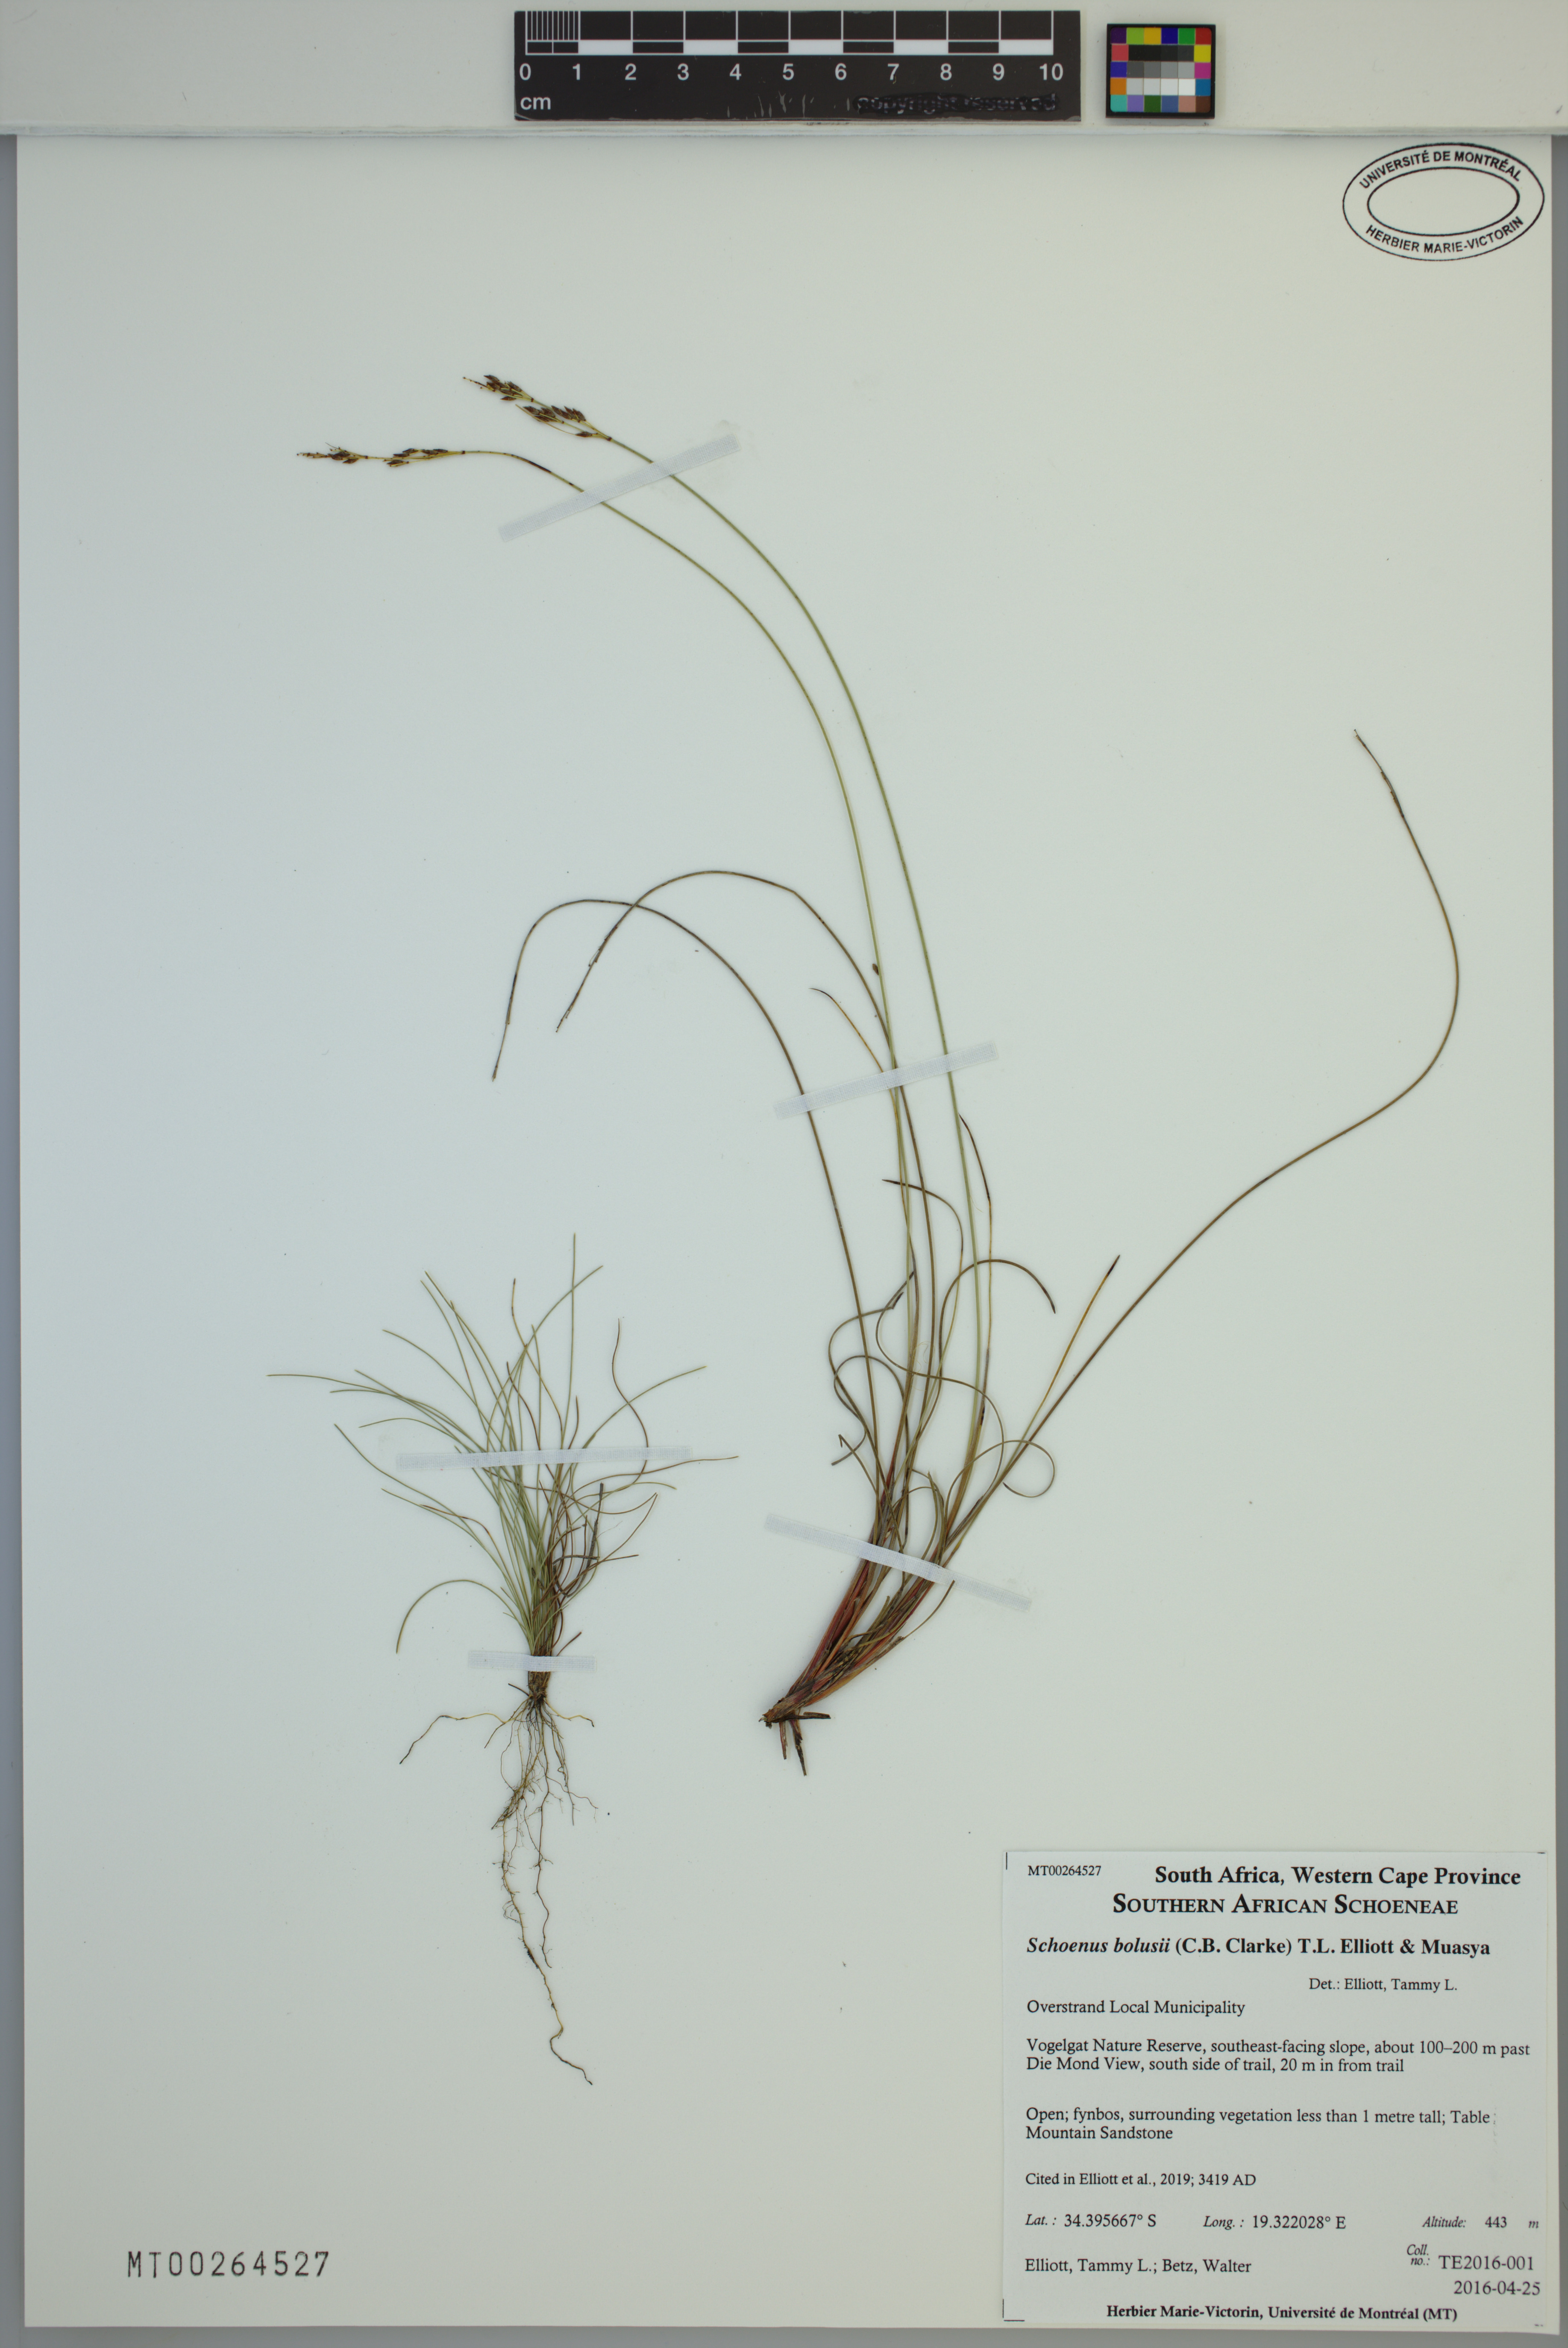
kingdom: Plantae
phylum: Tracheophyta
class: Liliopsida
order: Poales
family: Cyperaceae
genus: Schoenus
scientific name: Schoenus bolusii
